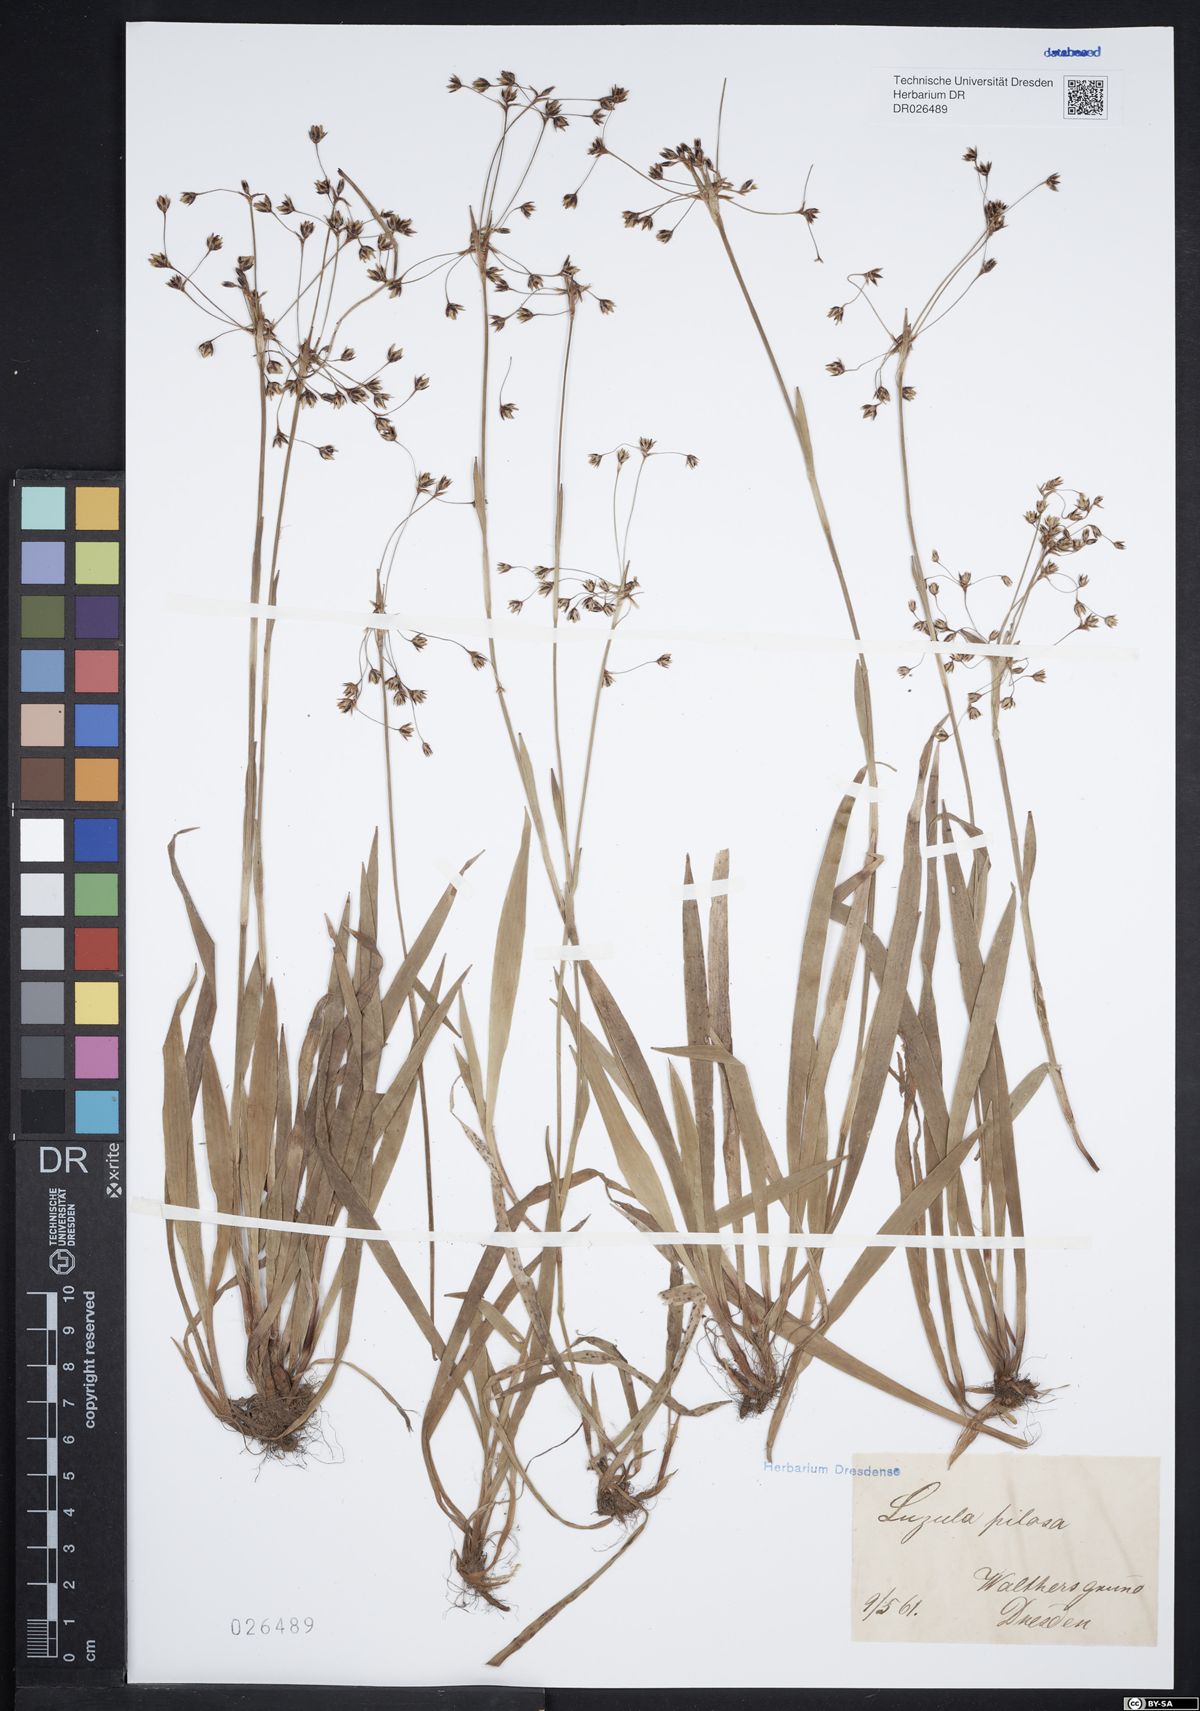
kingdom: Plantae
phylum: Tracheophyta
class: Liliopsida
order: Poales
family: Juncaceae
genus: Luzula
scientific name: Luzula pilosa
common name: Hairy wood-rush
